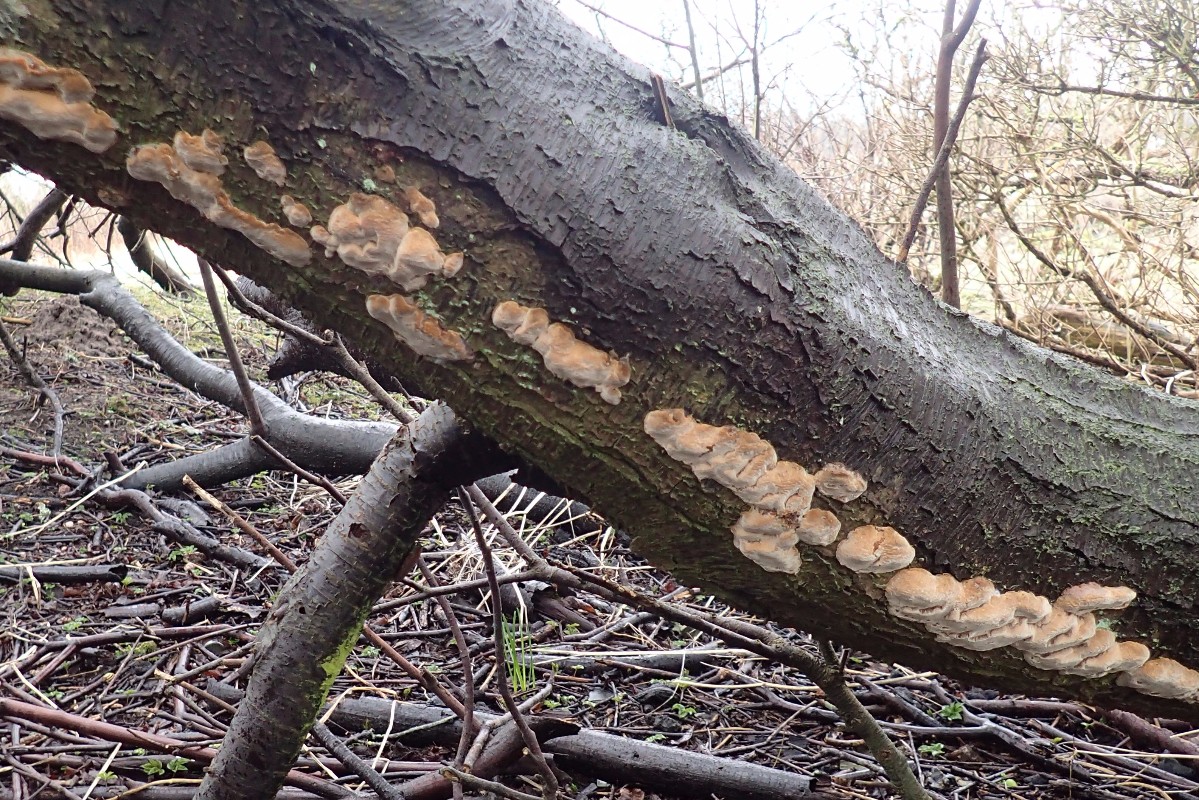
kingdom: Fungi
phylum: Basidiomycota
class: Agaricomycetes
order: Hymenochaetales
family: Hymenochaetaceae
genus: Phellinus
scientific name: Phellinus pomaceus
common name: blomme-ildporesvamp
